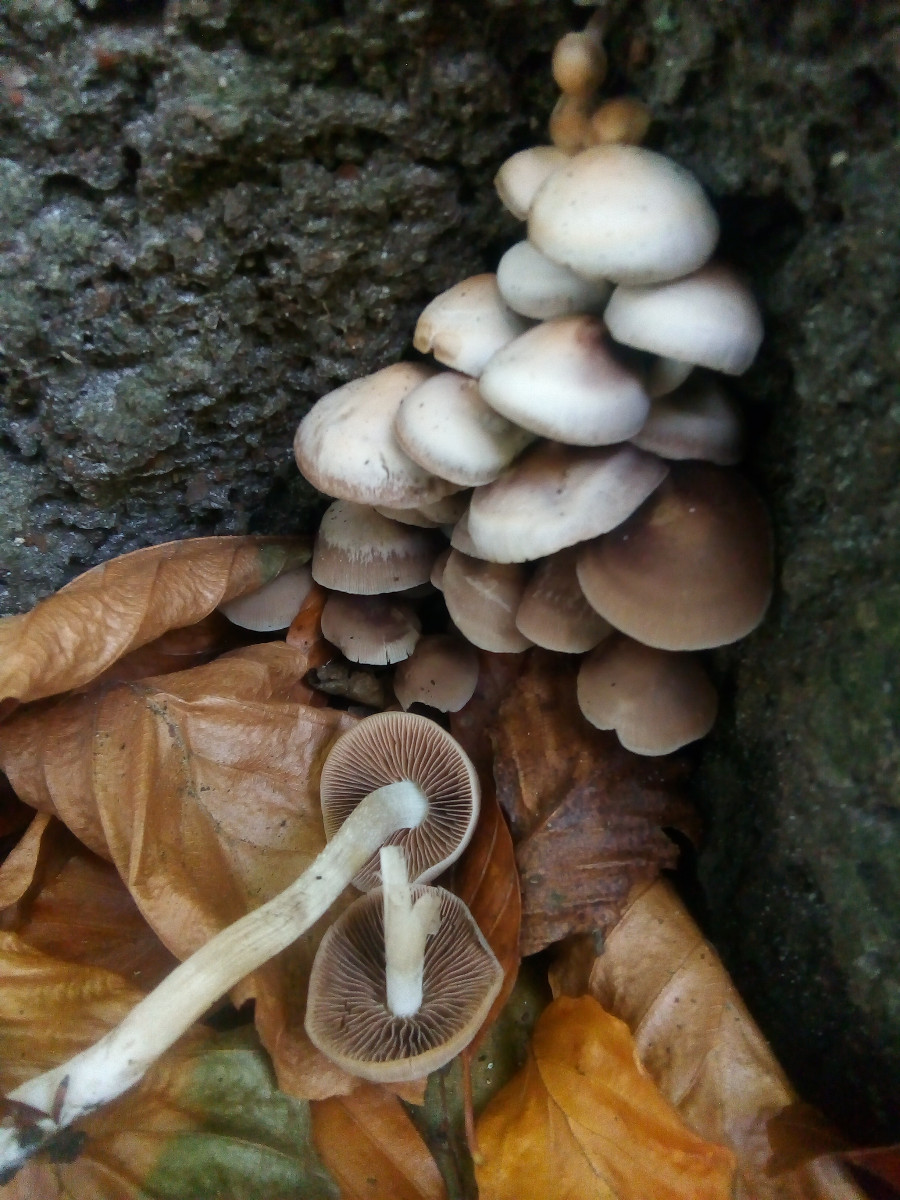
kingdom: Fungi
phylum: Basidiomycota
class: Agaricomycetes
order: Agaricales
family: Psathyrellaceae
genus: Homophron
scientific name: Homophron cernuum
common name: hvidlig mørkhat
